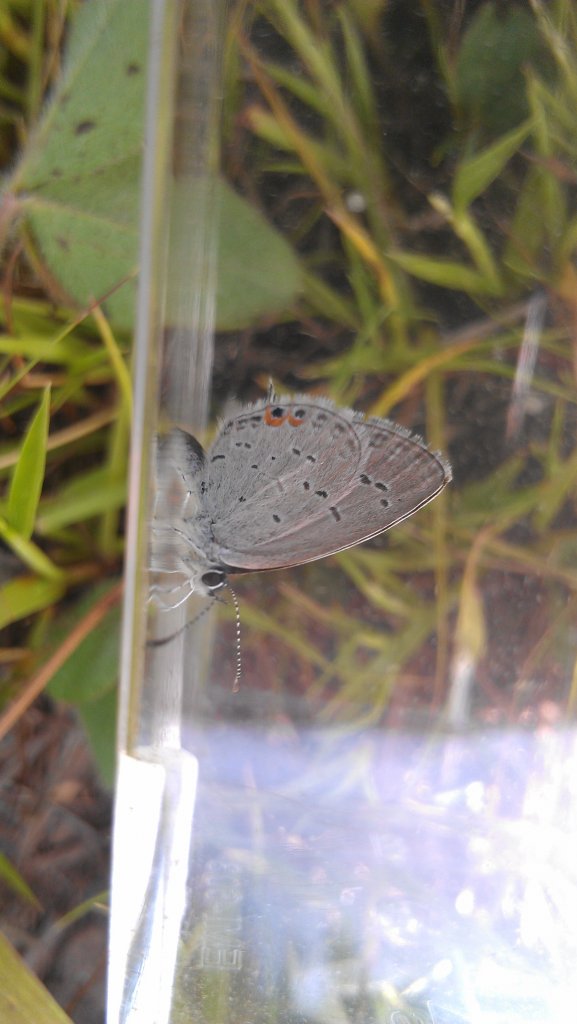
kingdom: Animalia
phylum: Arthropoda
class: Insecta
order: Lepidoptera
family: Lycaenidae
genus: Elkalyce
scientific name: Elkalyce comyntas
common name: Eastern Tailed-Blue
